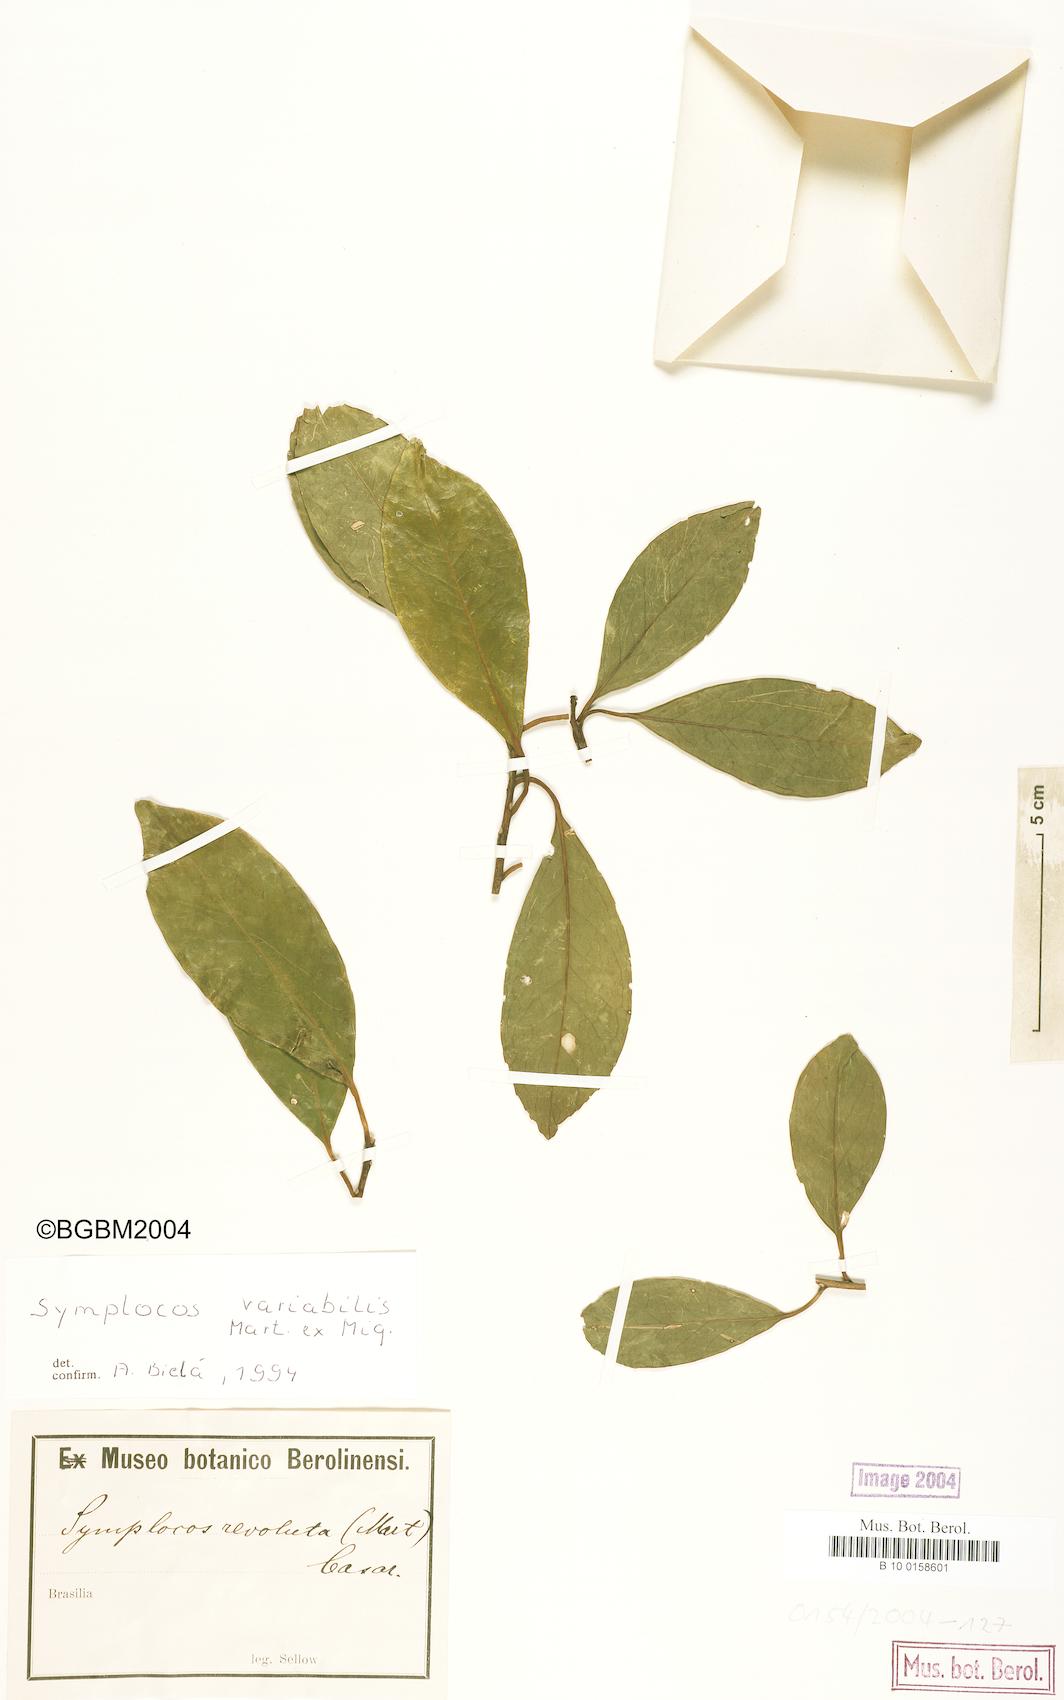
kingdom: Plantae
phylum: Tracheophyta
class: Magnoliopsida
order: Ericales
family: Symplocaceae
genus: Symplocos
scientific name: Symplocos revoluta
